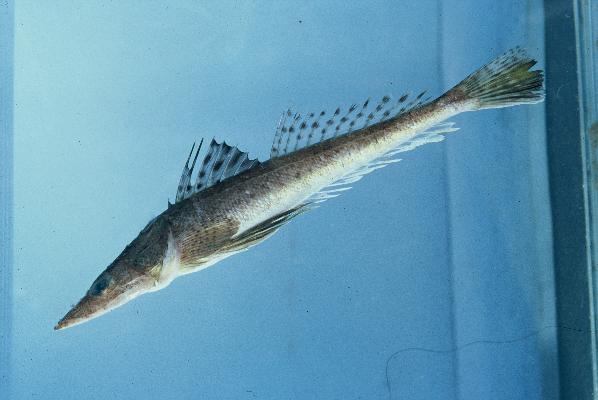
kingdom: Animalia
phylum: Chordata
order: Scorpaeniformes
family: Platycephalidae
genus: Cociella
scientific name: Cociella heemstrai
